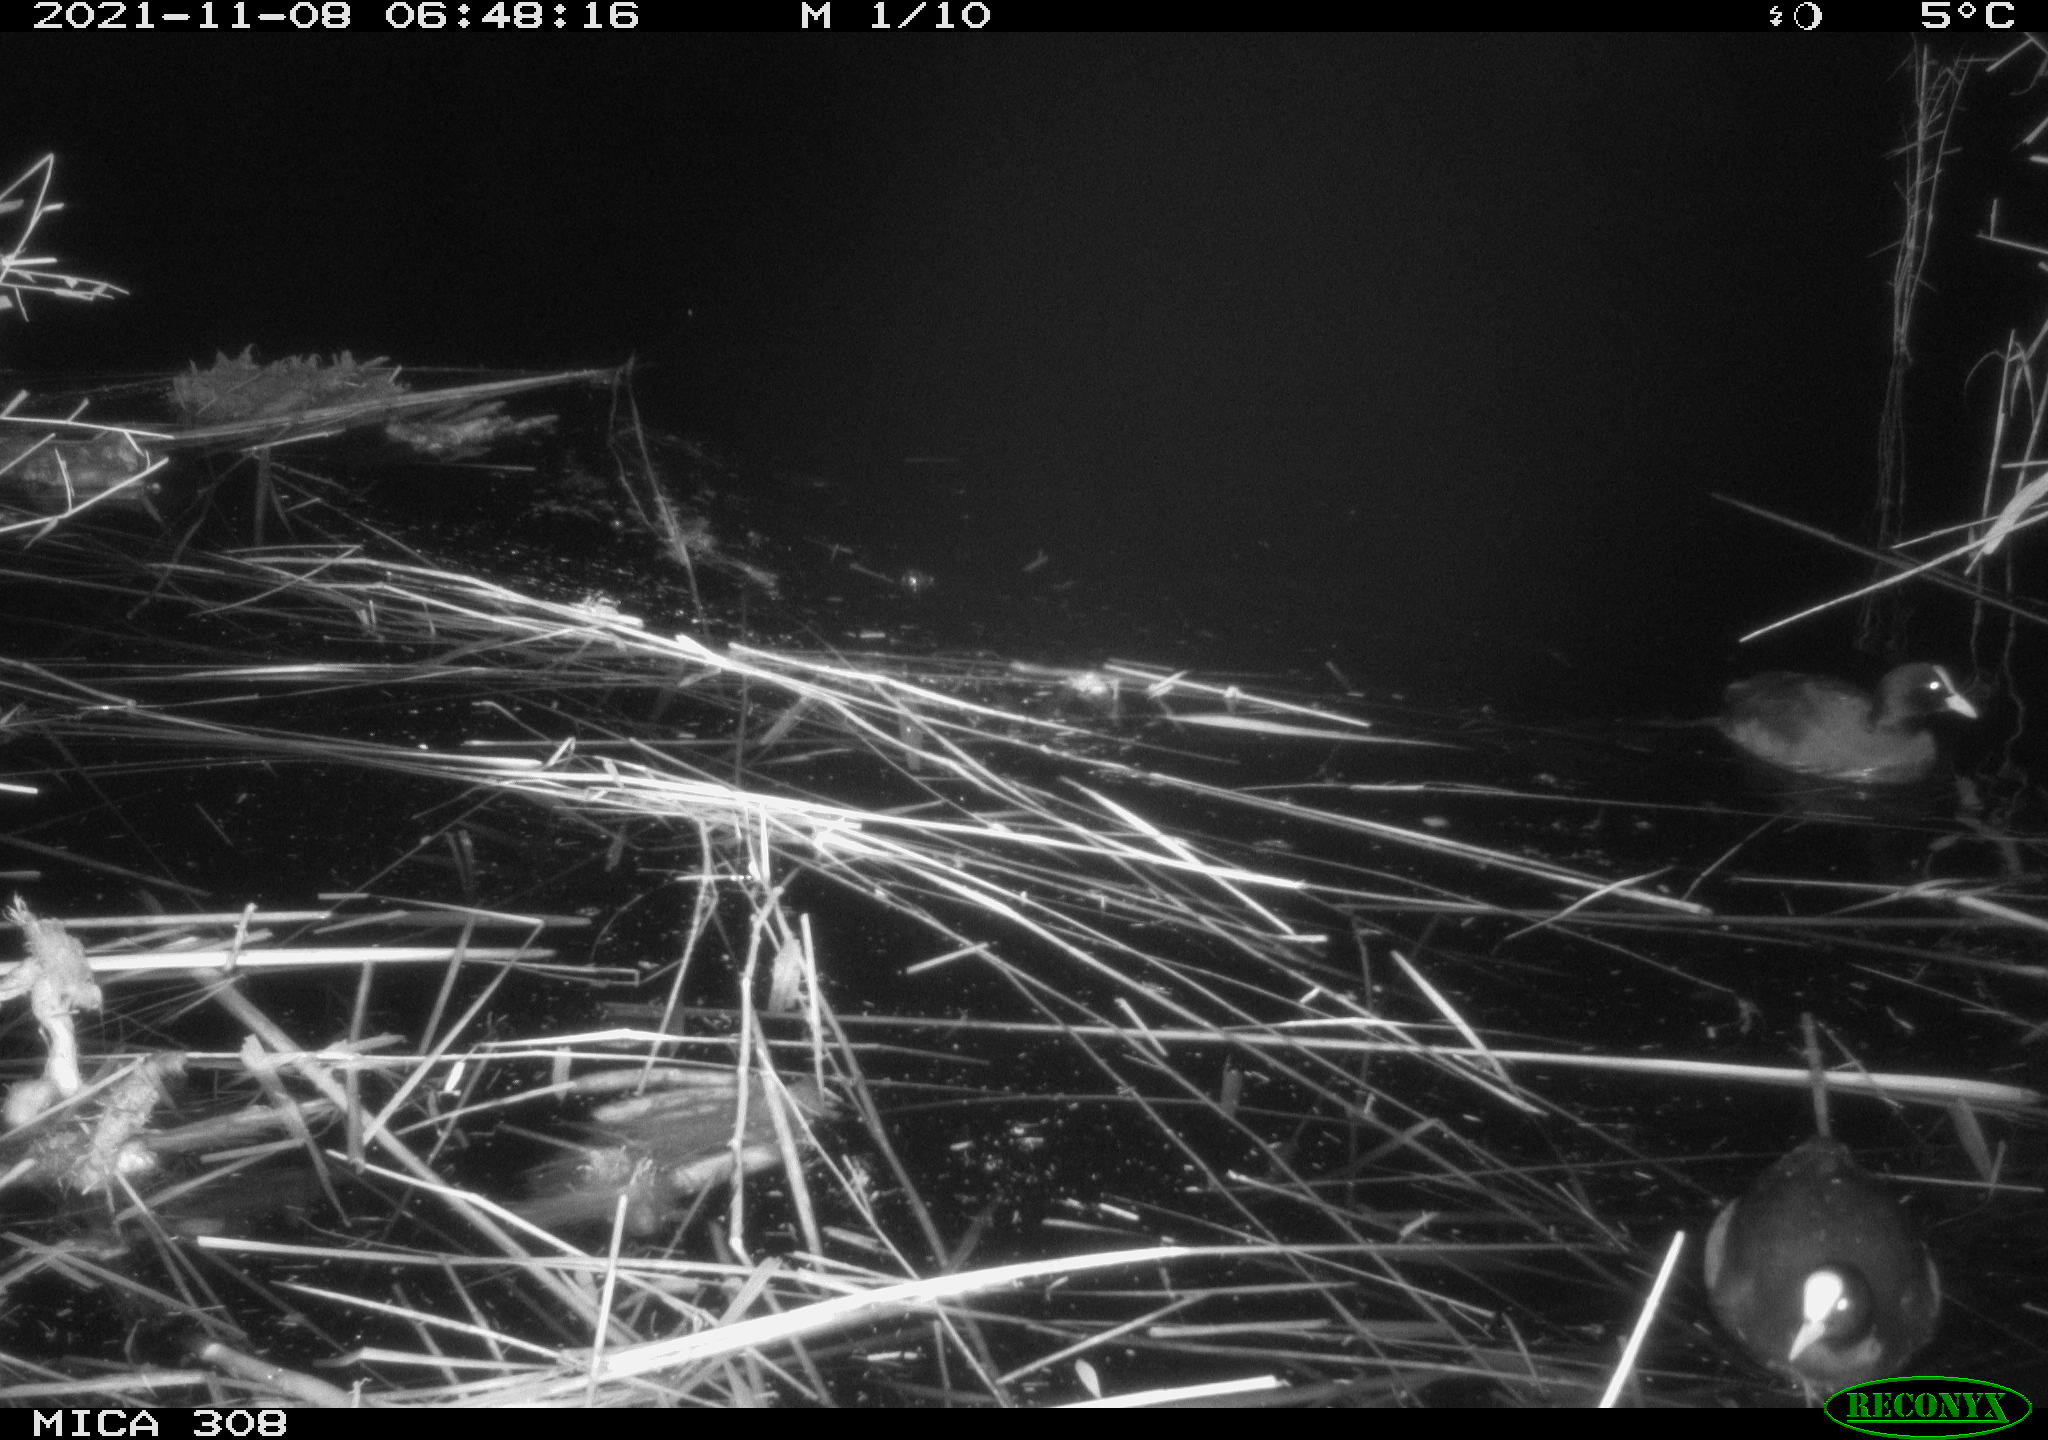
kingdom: Animalia
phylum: Chordata
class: Aves
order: Gruiformes
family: Rallidae
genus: Fulica
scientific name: Fulica atra
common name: Eurasian coot
